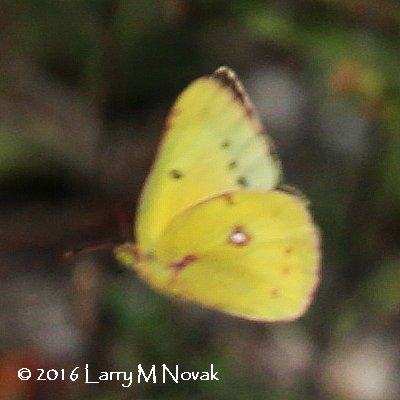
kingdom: Animalia
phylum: Arthropoda
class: Insecta
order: Lepidoptera
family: Pieridae
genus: Colias
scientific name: Colias eurytheme
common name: Orange Sulphur
